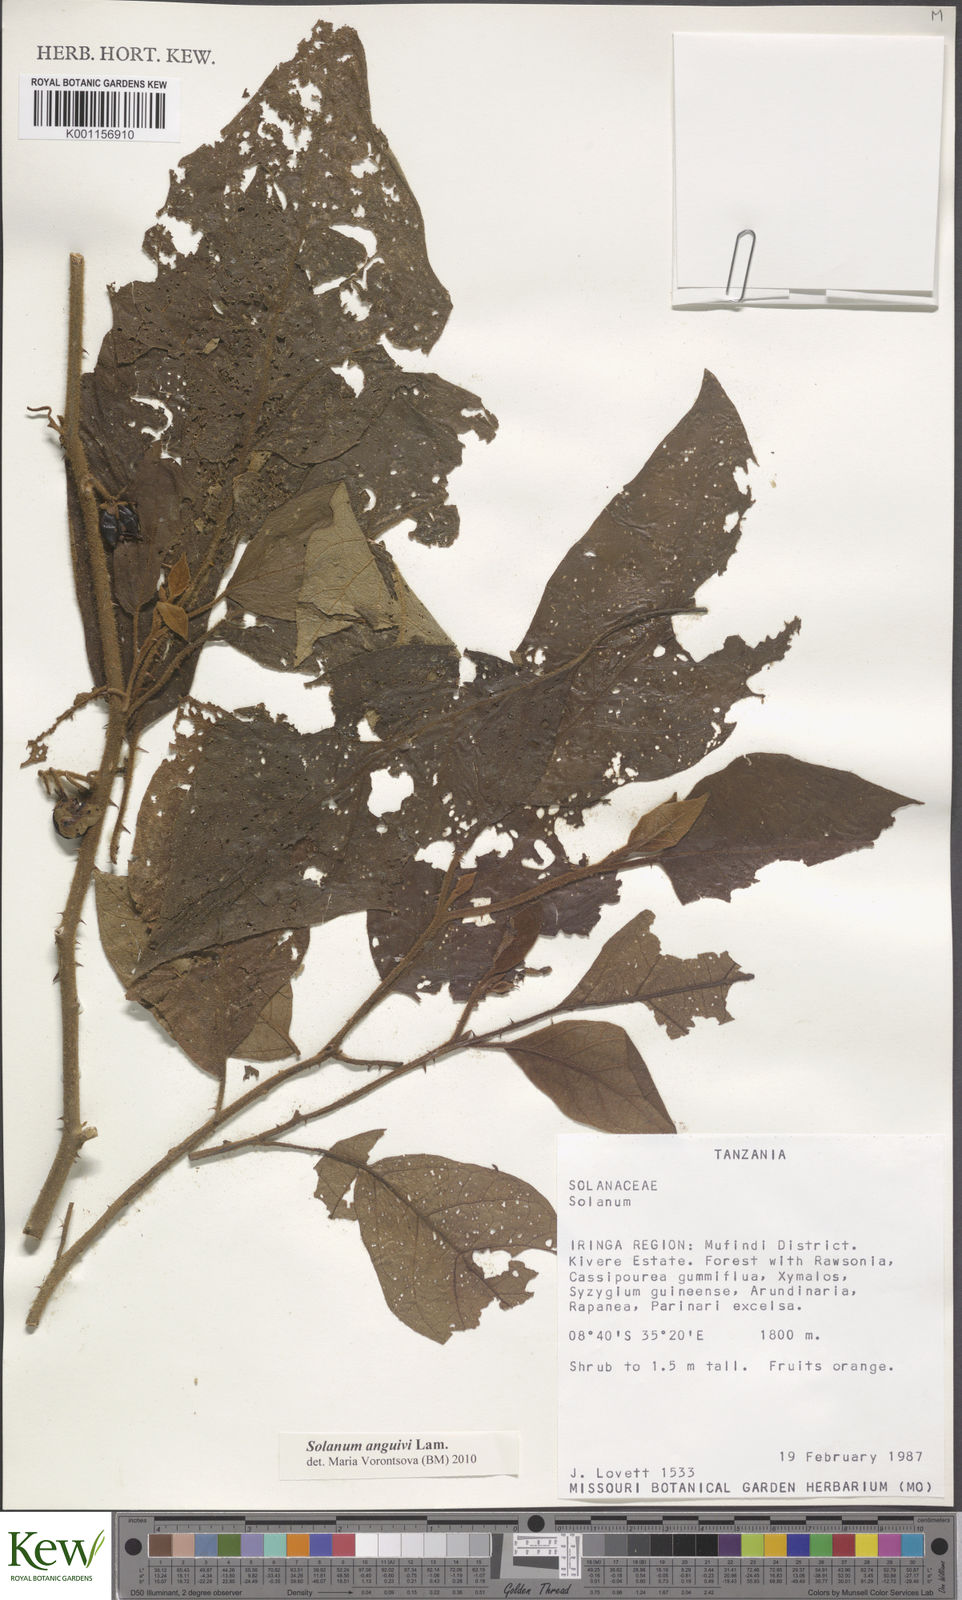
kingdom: Plantae
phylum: Tracheophyta
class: Magnoliopsida
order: Solanales
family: Solanaceae
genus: Solanum
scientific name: Solanum anguivi
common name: Forest bitterberry
